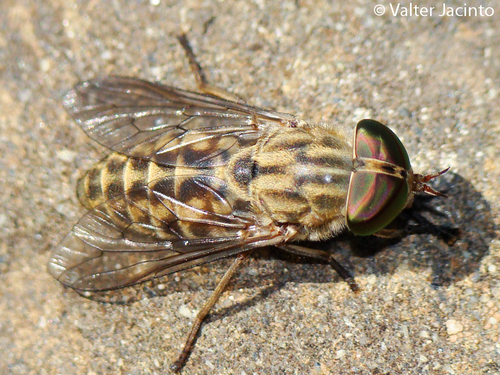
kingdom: Animalia
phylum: Arthropoda
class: Insecta
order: Diptera
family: Tabanidae
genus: Tabanus
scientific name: Tabanus exclusus
